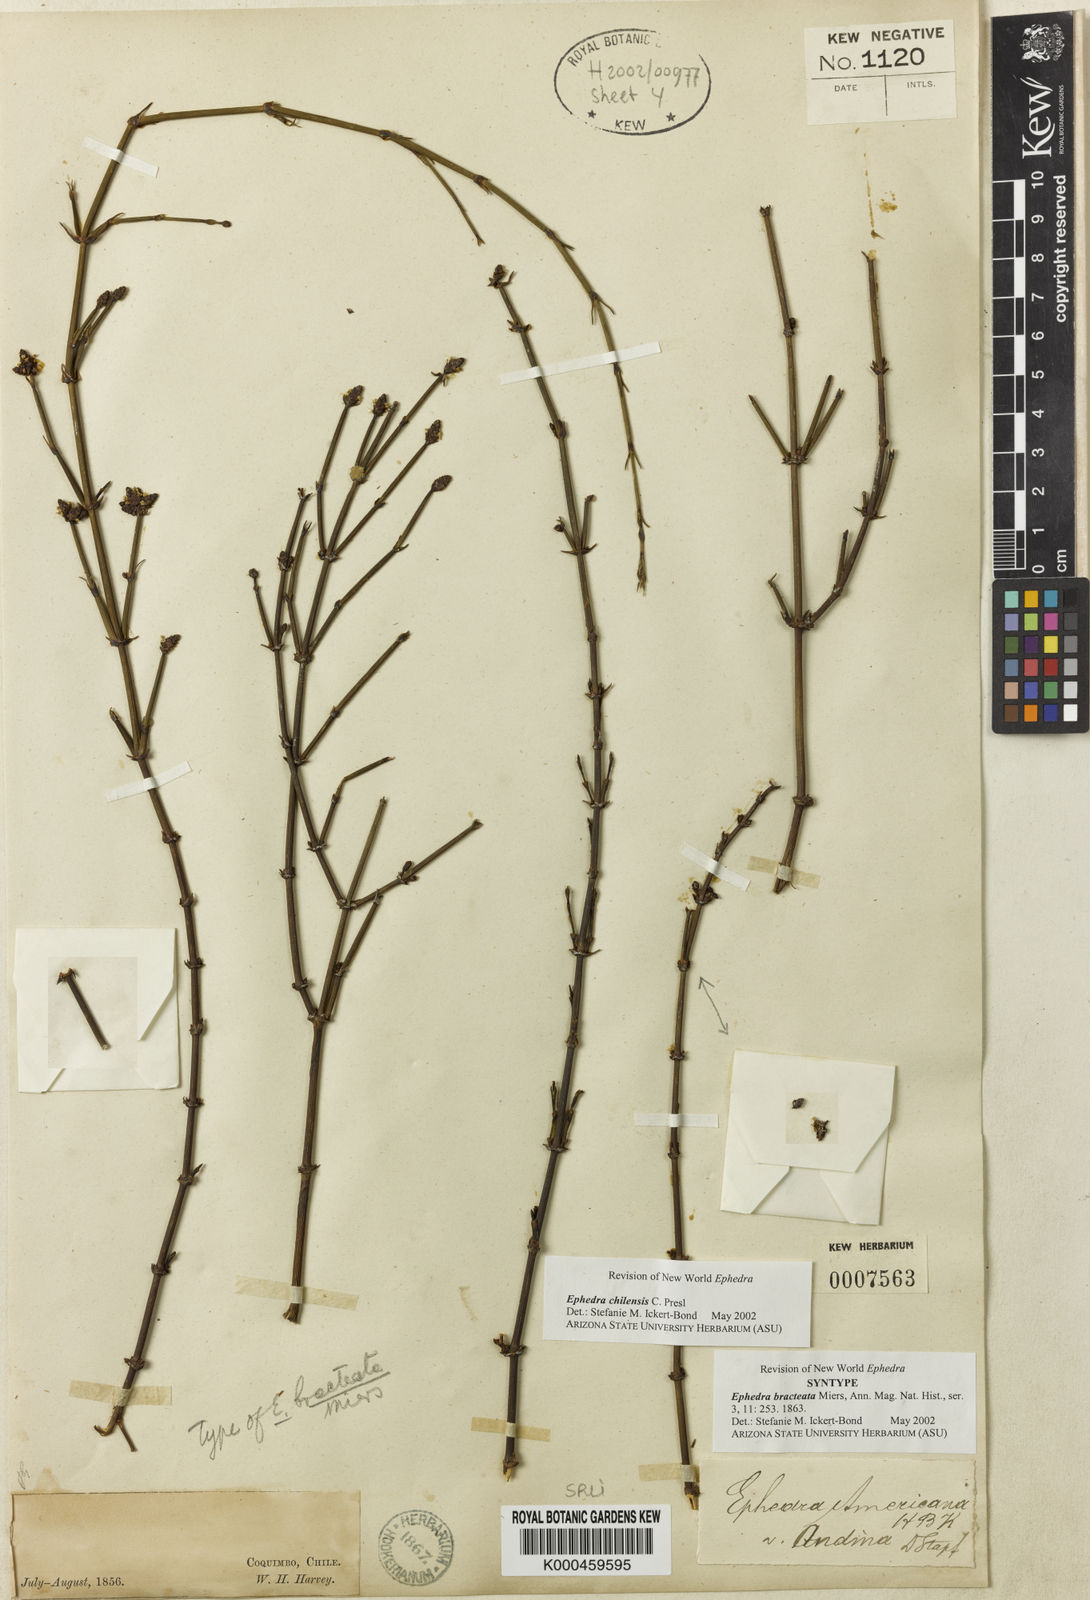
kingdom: Plantae
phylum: Tracheophyta
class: Gnetopsida
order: Ephedrales
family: Ephedraceae
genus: Ephedra
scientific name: Ephedra americana
